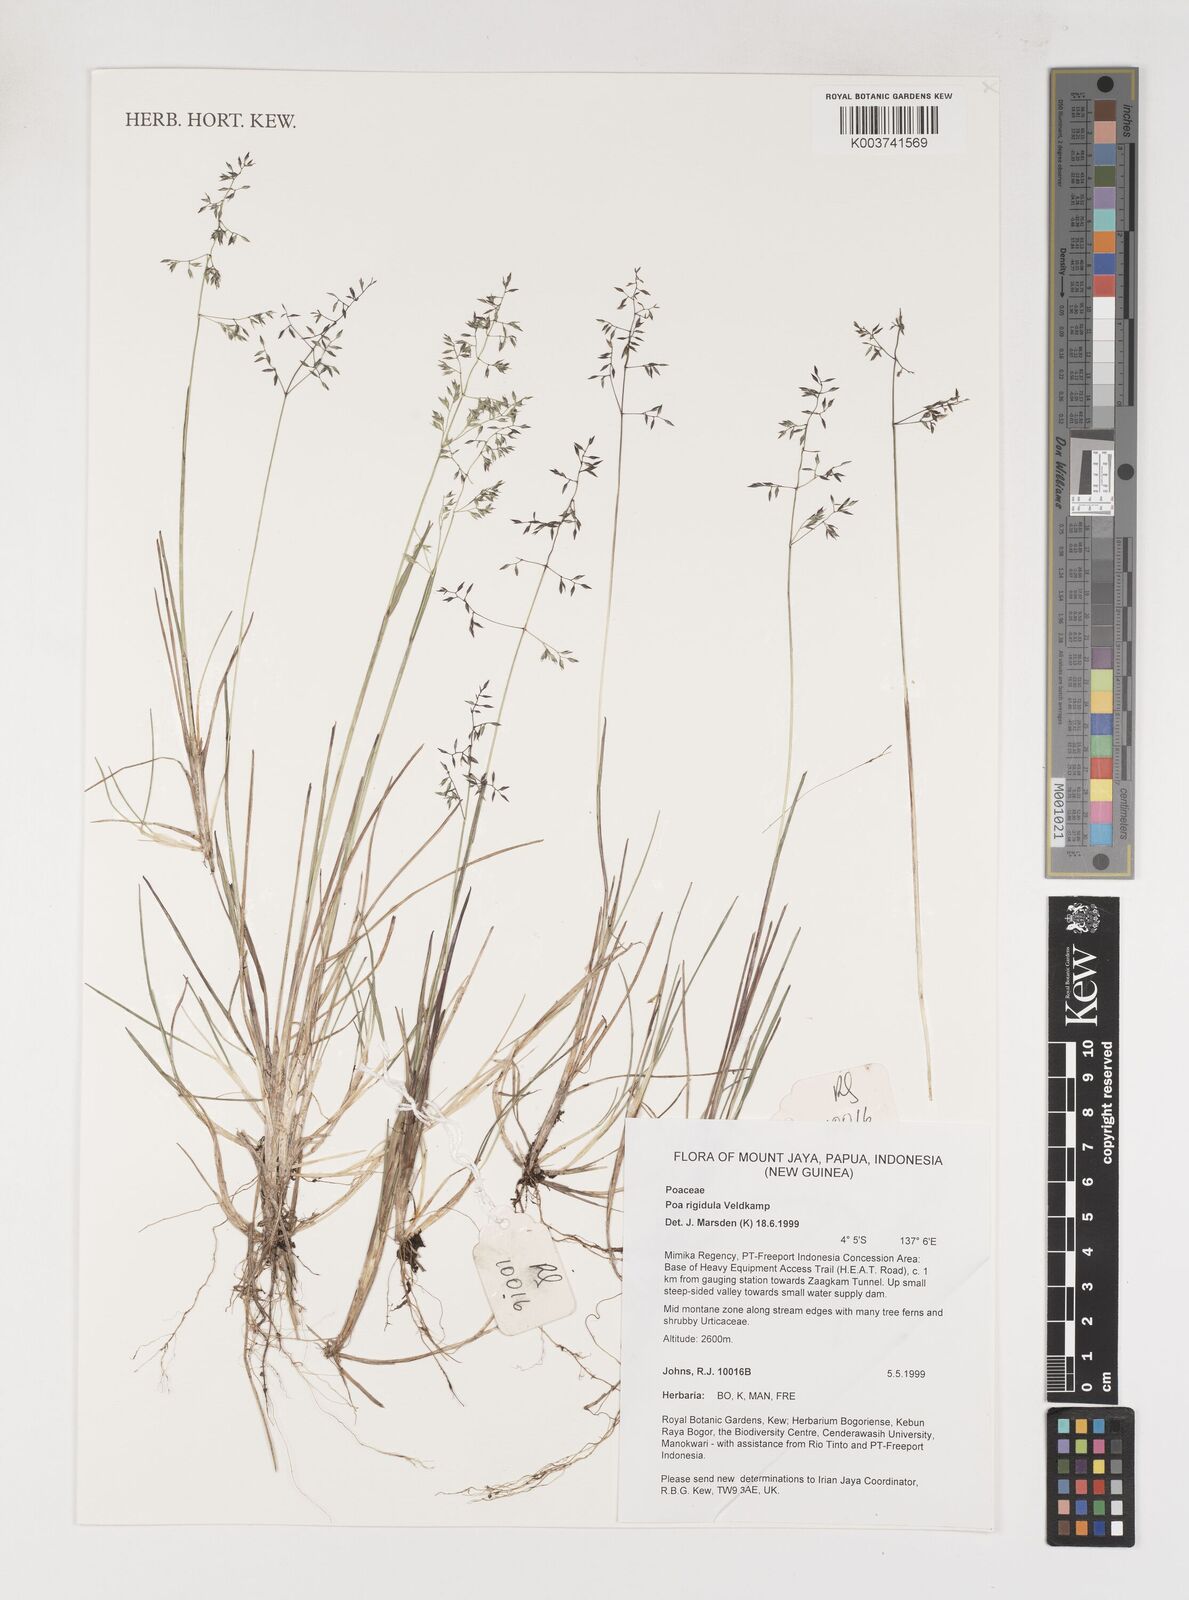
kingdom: Plantae
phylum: Tracheophyta
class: Liliopsida
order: Poales
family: Poaceae
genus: Poa
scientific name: Poa rigidula
